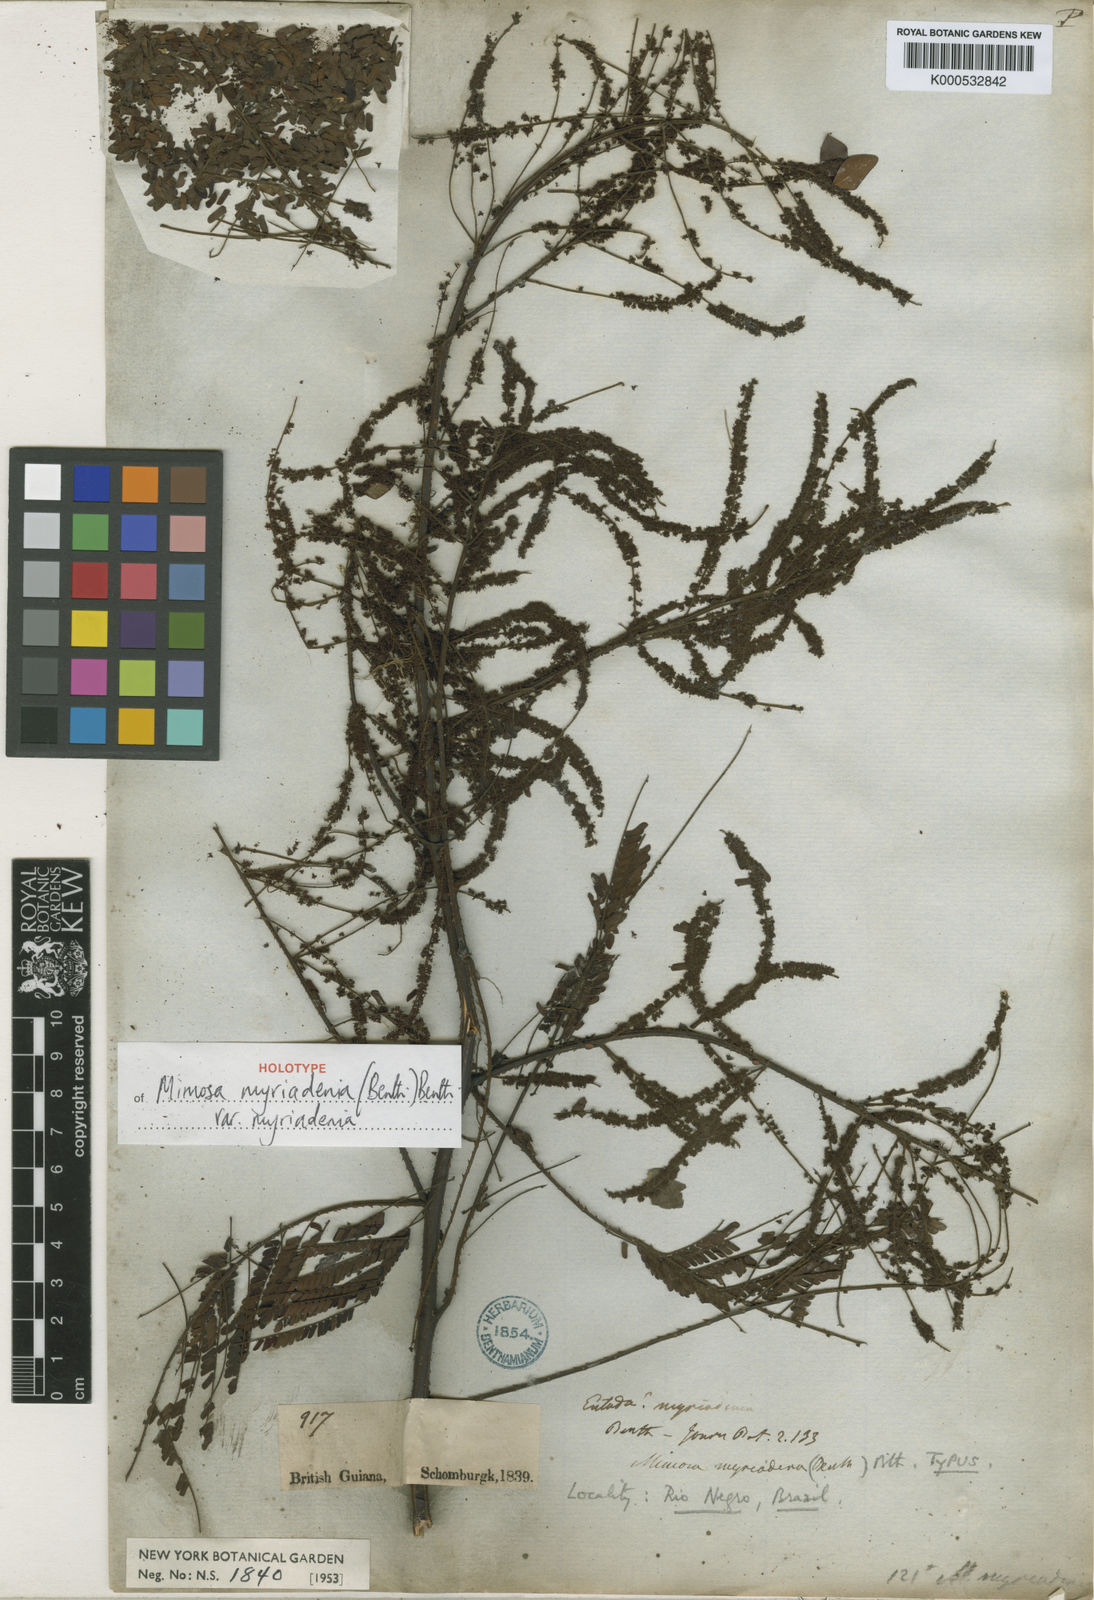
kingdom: Plantae
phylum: Tracheophyta
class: Magnoliopsida
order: Fabales
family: Fabaceae
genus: Mimosa
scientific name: Mimosa myriadenia
